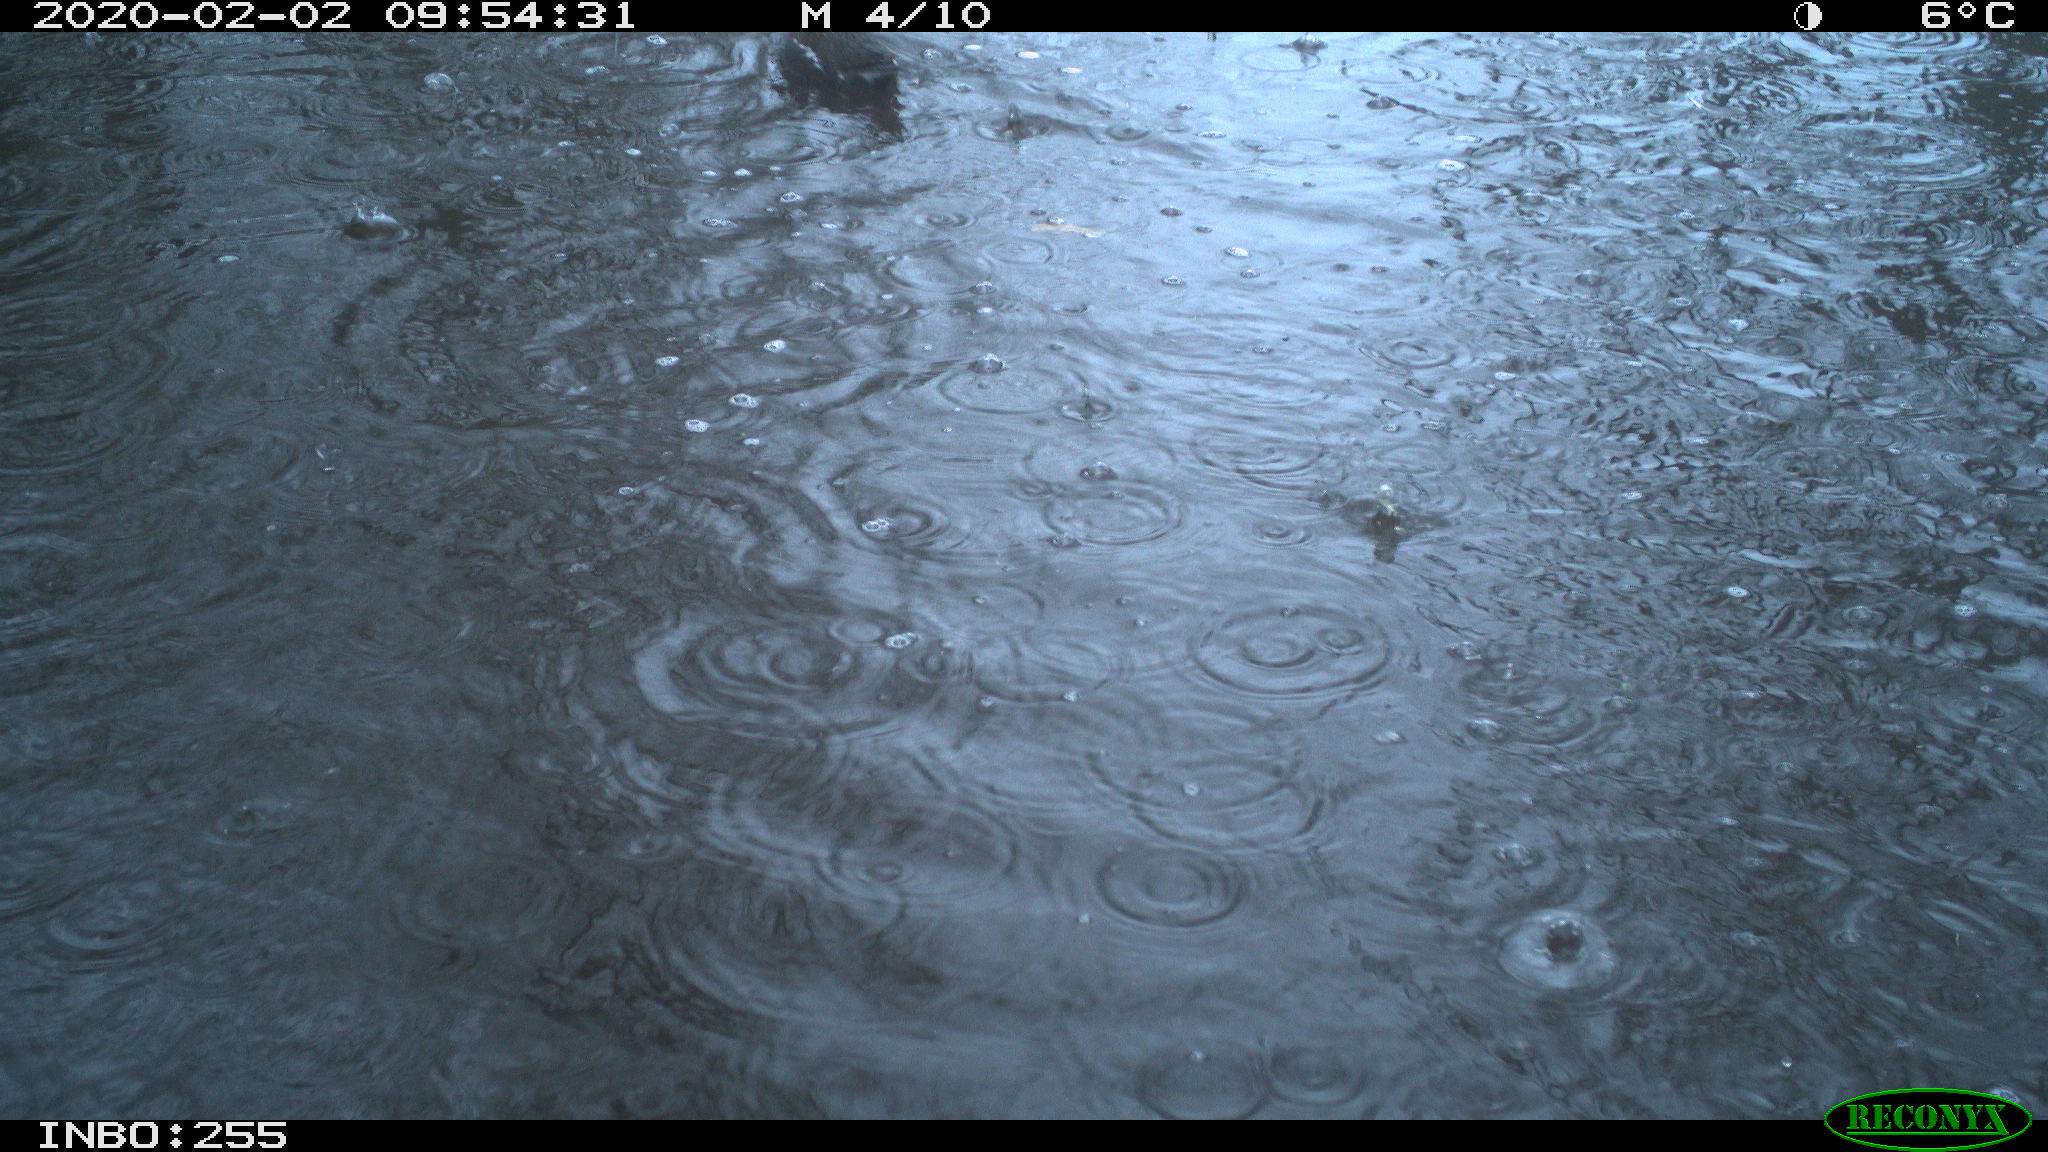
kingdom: Animalia
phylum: Chordata
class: Aves
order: Gruiformes
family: Rallidae
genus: Gallinula
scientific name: Gallinula chloropus
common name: Common moorhen
